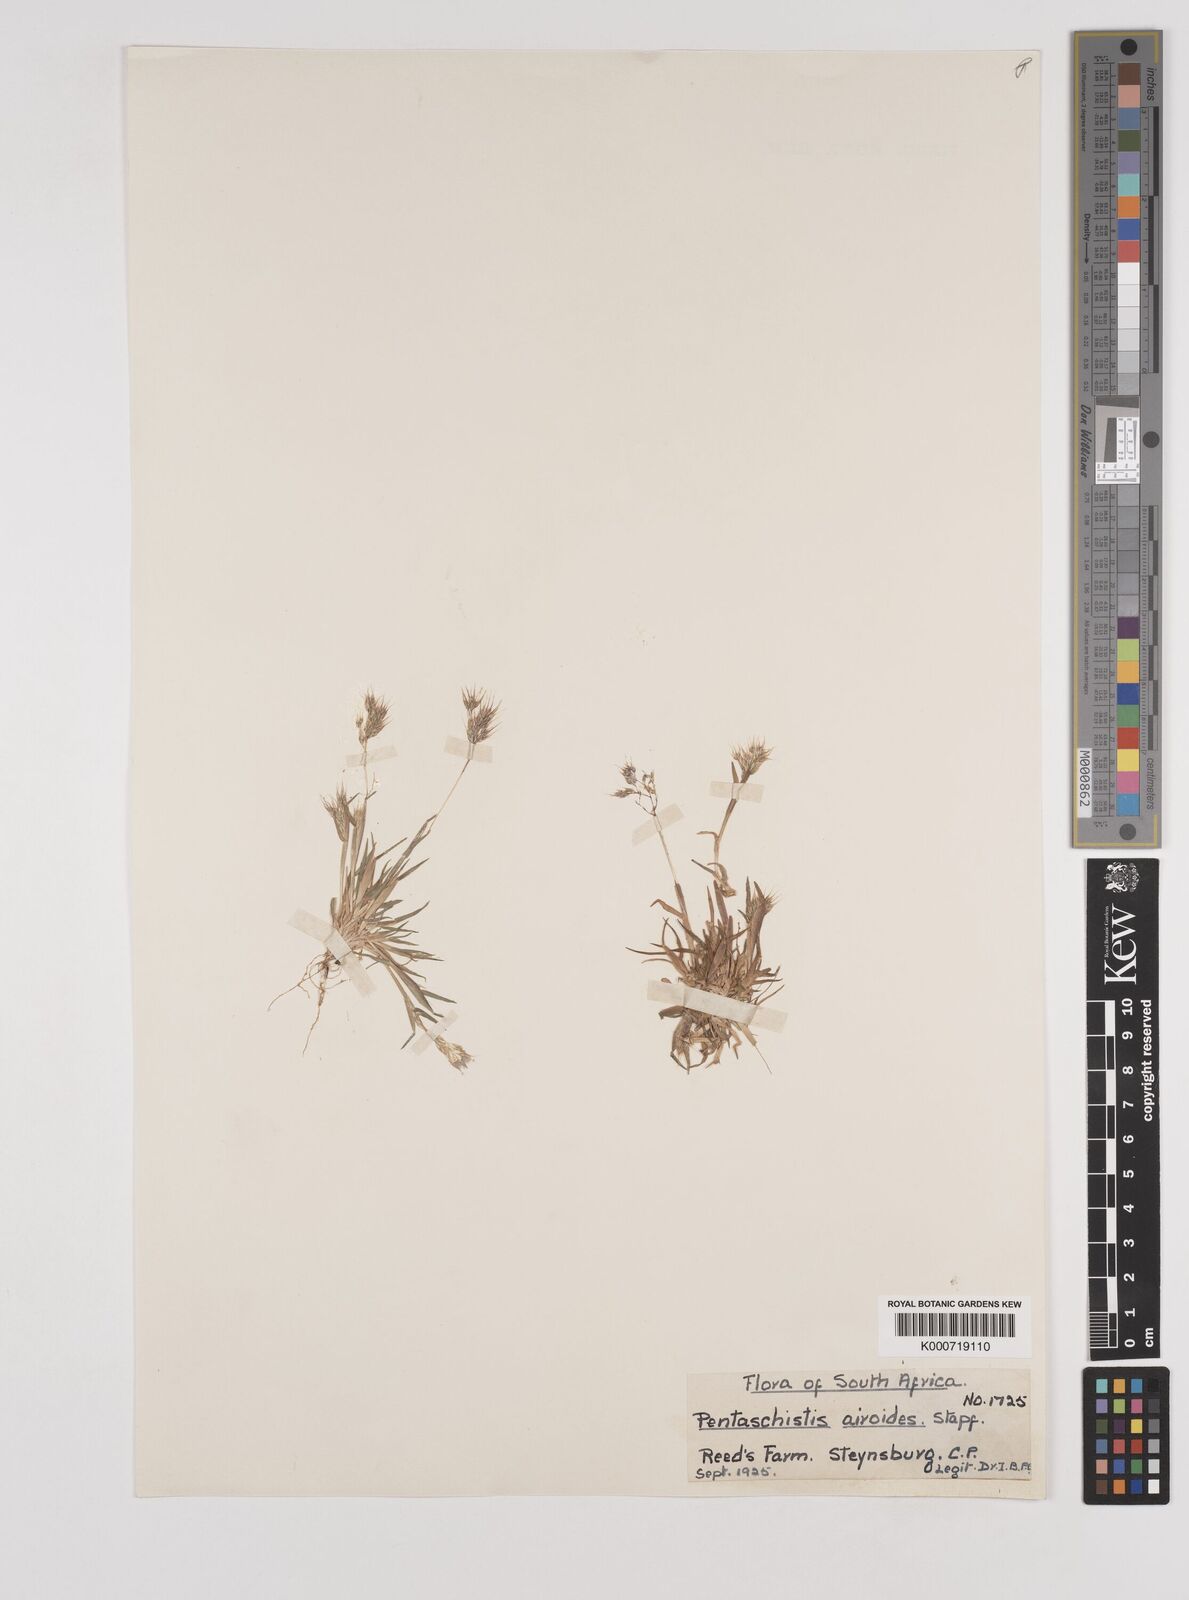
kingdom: Plantae
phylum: Tracheophyta
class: Liliopsida
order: Poales
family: Poaceae
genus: Pentameris
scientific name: Pentameris airoides
